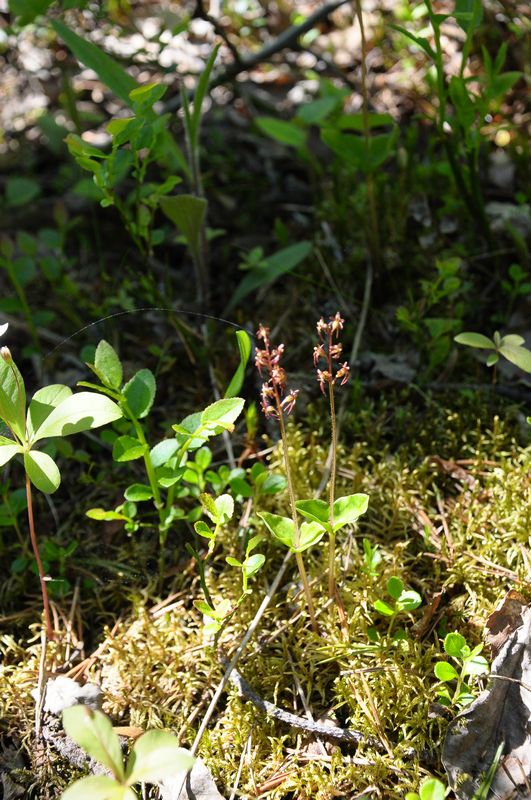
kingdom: Plantae
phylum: Tracheophyta
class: Liliopsida
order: Asparagales
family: Orchidaceae
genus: Neottia
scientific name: Neottia cordata
